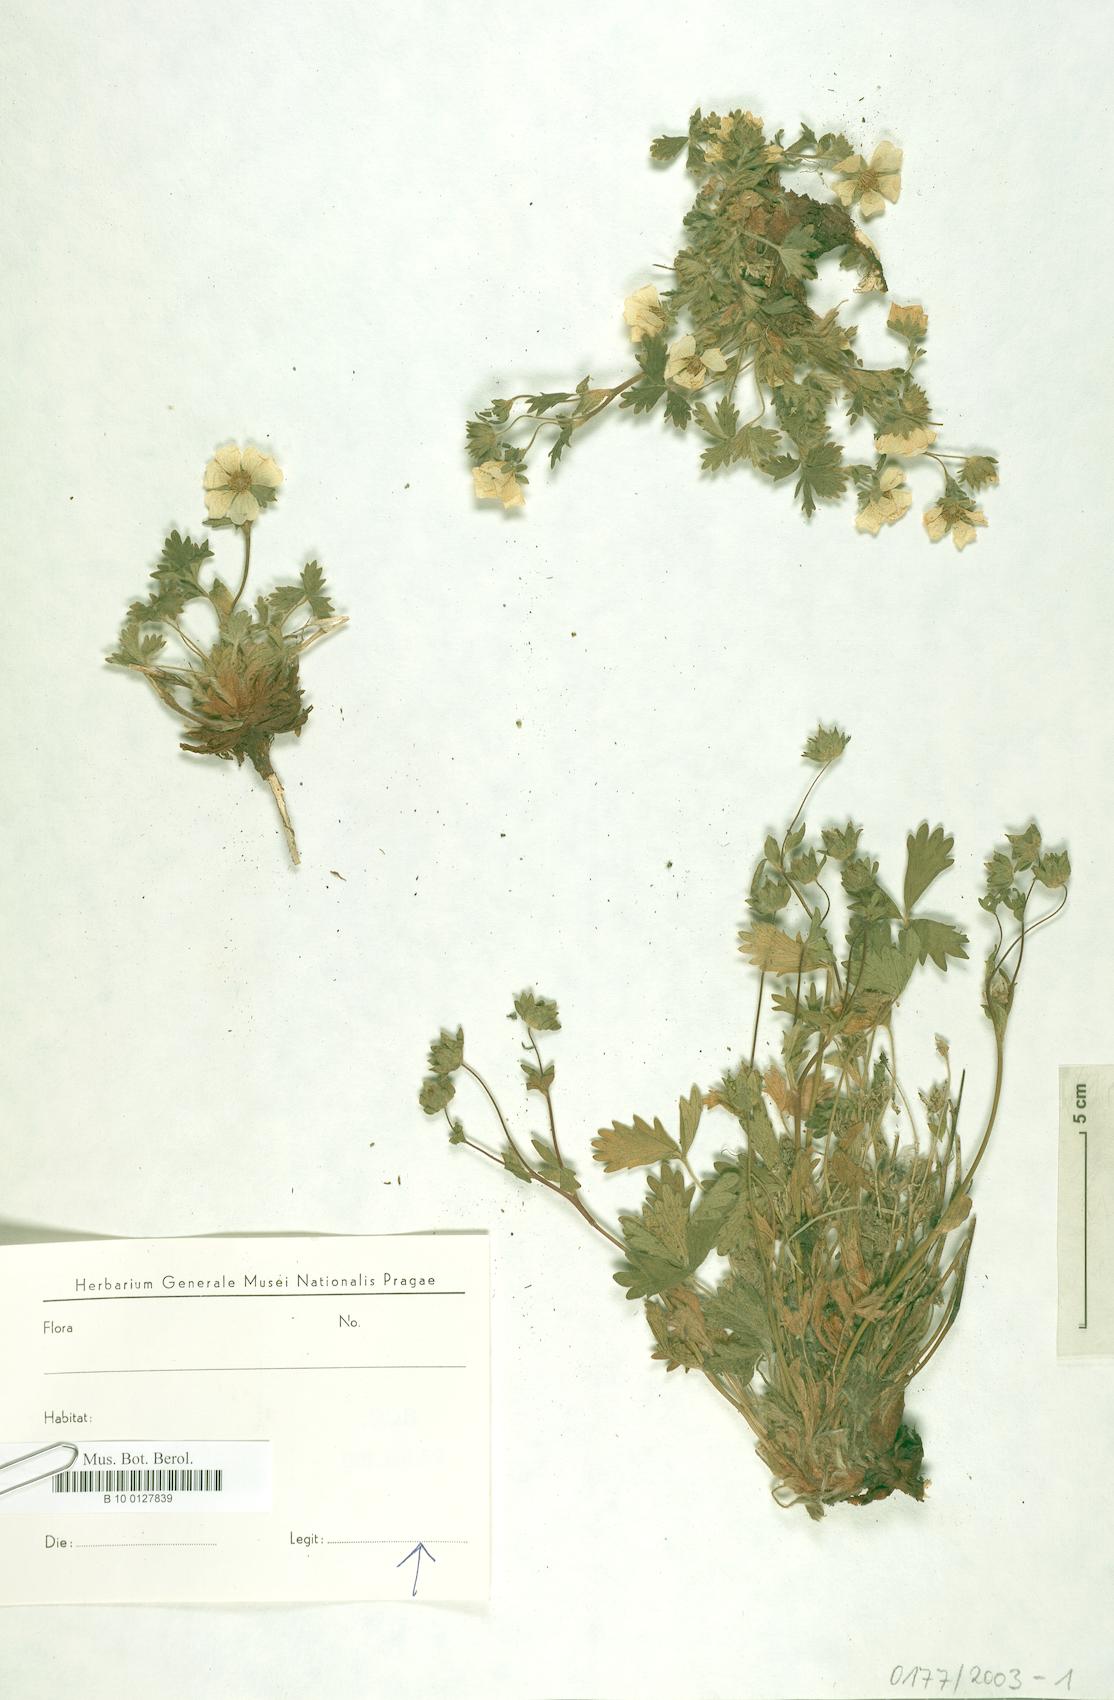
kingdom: Plantae
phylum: Tracheophyta
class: Magnoliopsida
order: Rosales
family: Rosaceae
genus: Potentilla
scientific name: Potentilla
